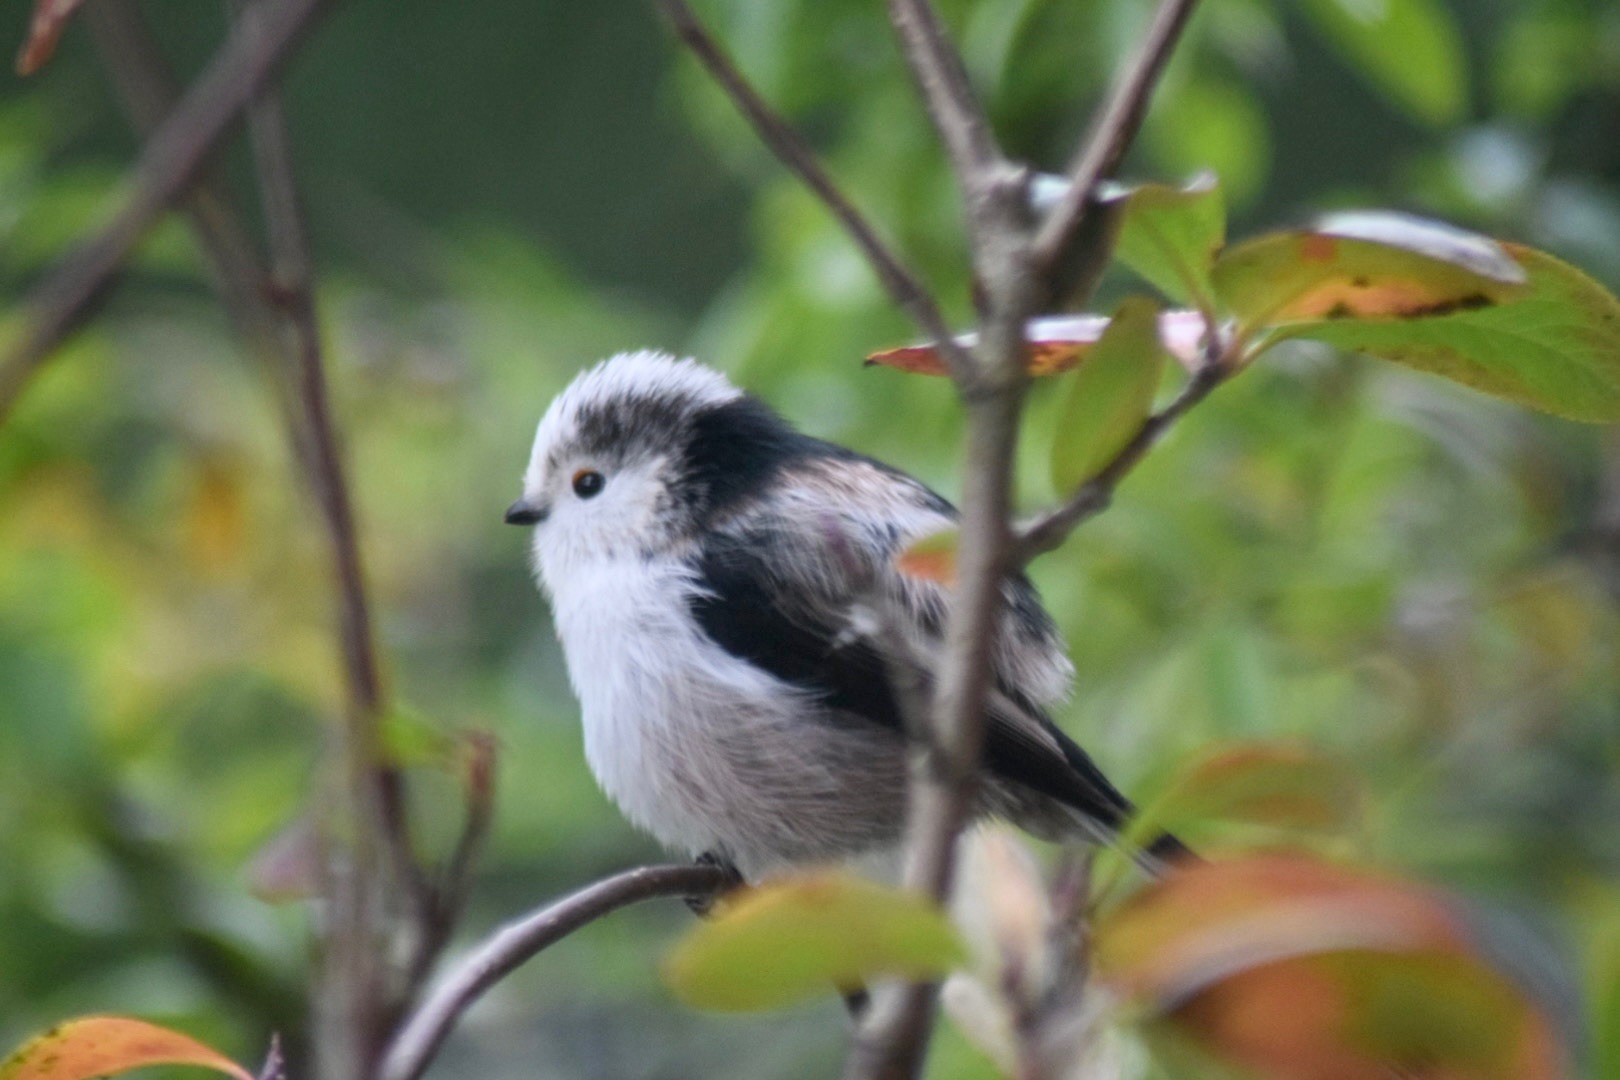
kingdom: Animalia
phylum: Chordata
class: Aves
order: Passeriformes
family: Aegithalidae
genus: Aegithalos
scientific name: Aegithalos caudatus
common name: Halemejse
